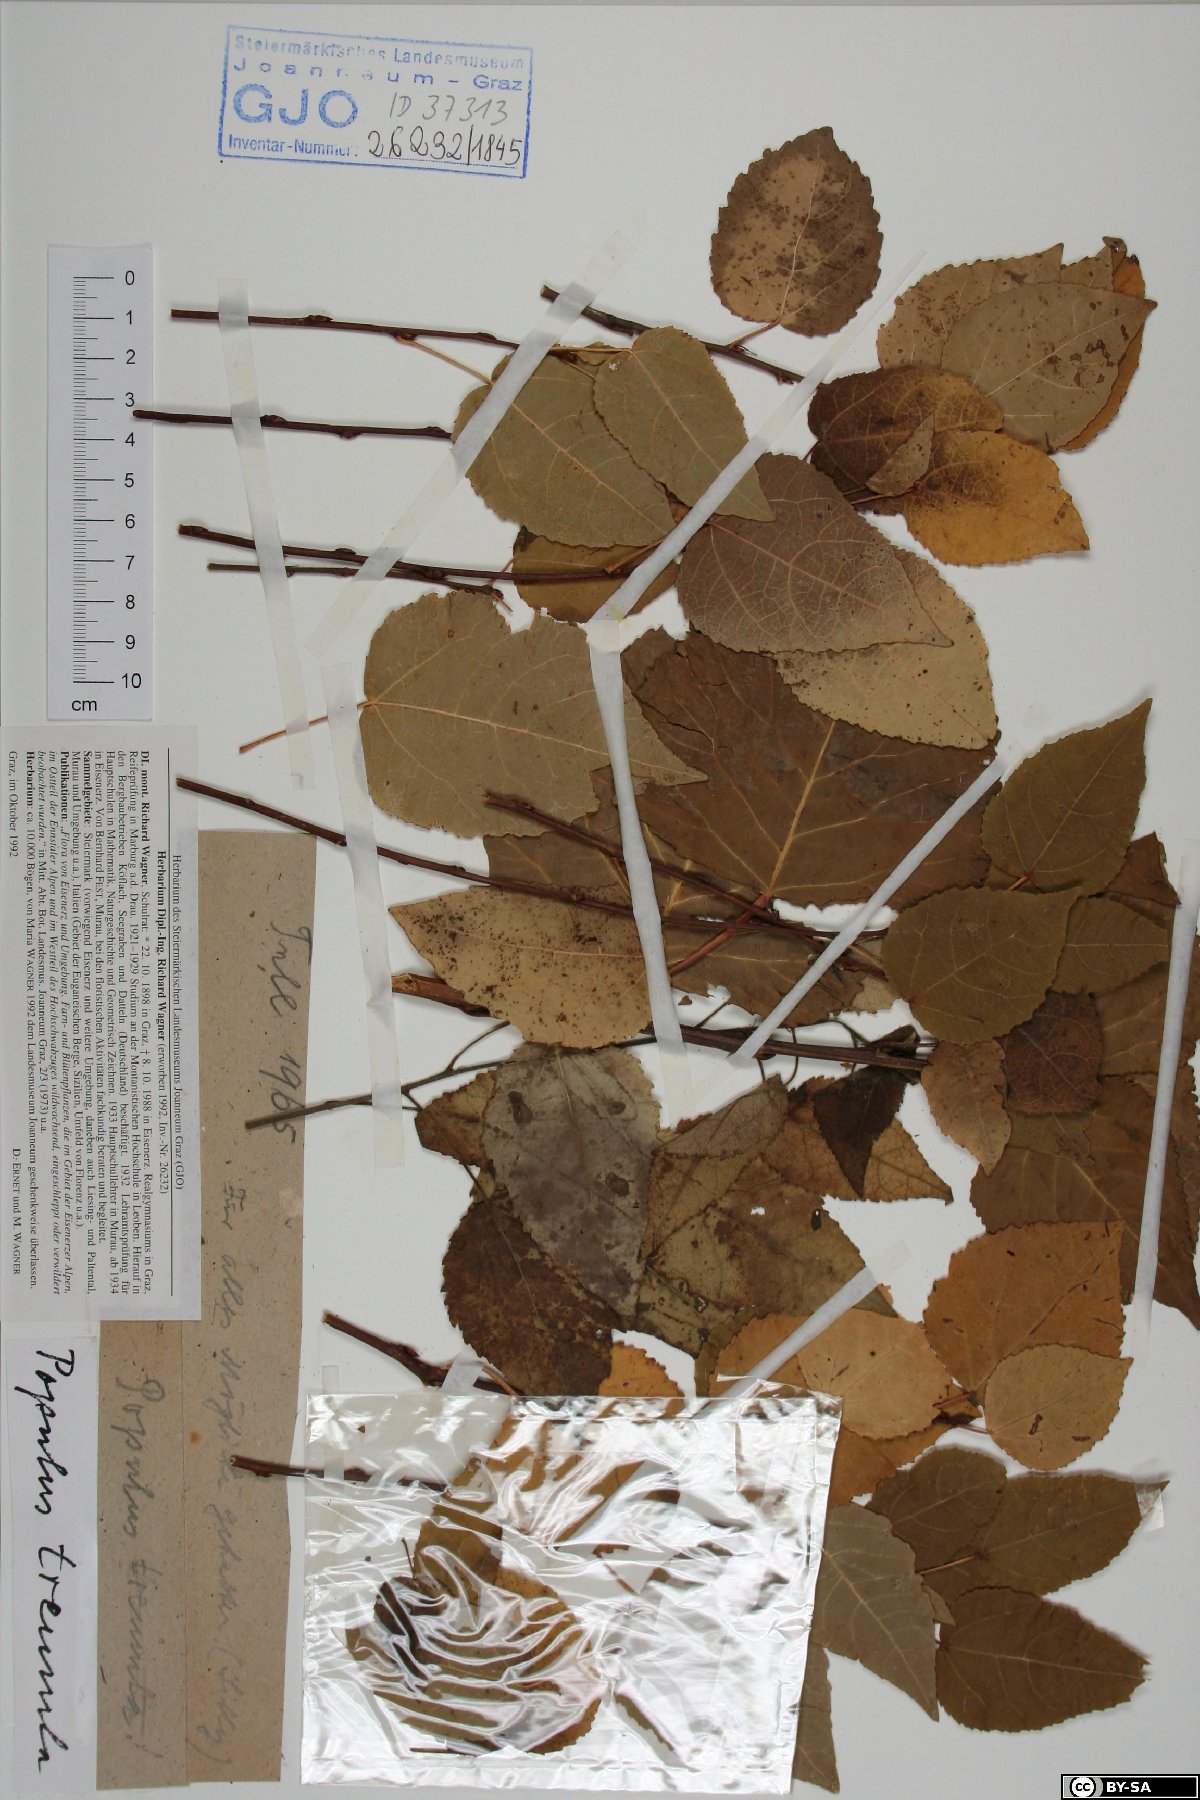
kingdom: Plantae
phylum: Tracheophyta
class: Magnoliopsida
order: Malpighiales
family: Salicaceae
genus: Populus
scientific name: Populus tremula
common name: European aspen
